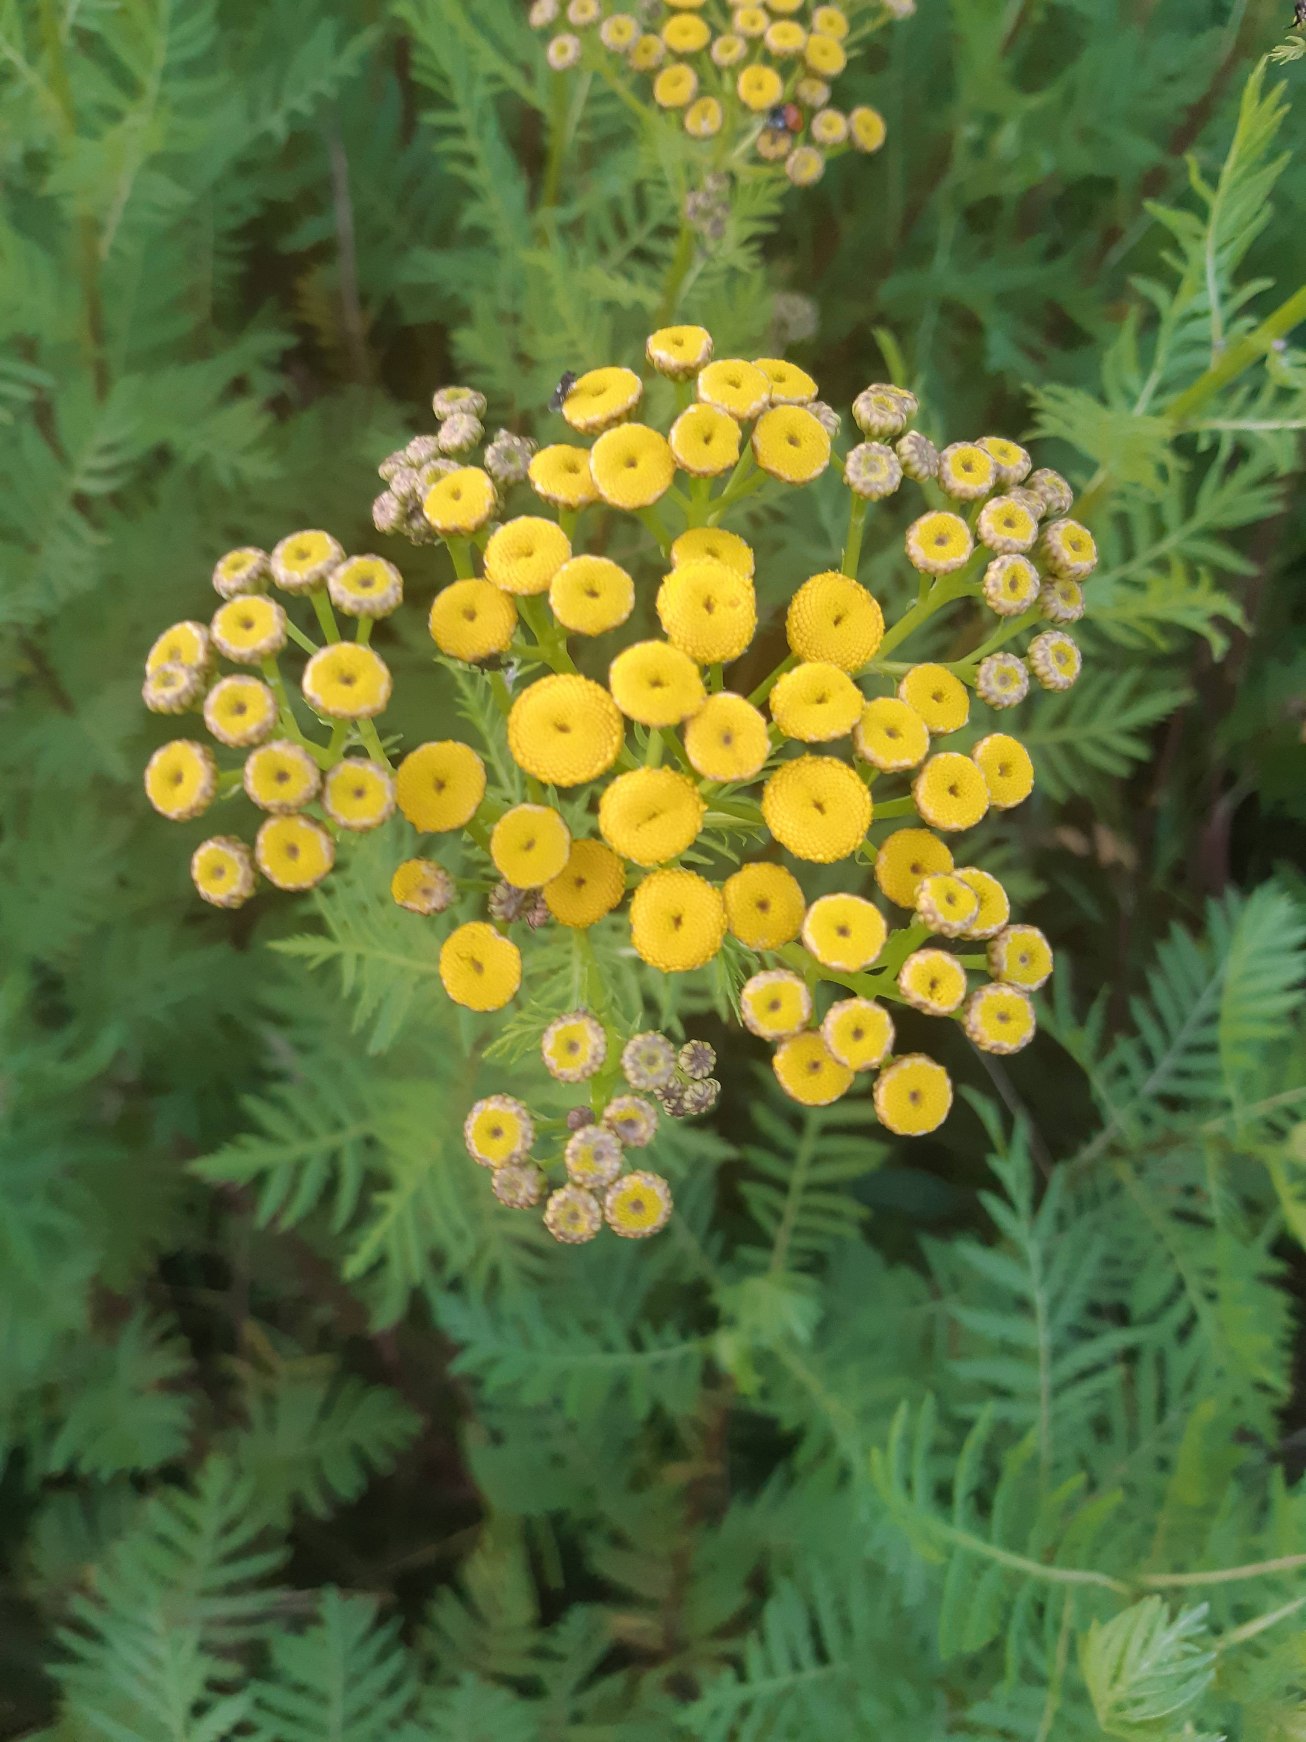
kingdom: Plantae
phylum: Tracheophyta
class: Magnoliopsida
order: Asterales
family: Asteraceae
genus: Tanacetum
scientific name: Tanacetum vulgare
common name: Rejnfan
